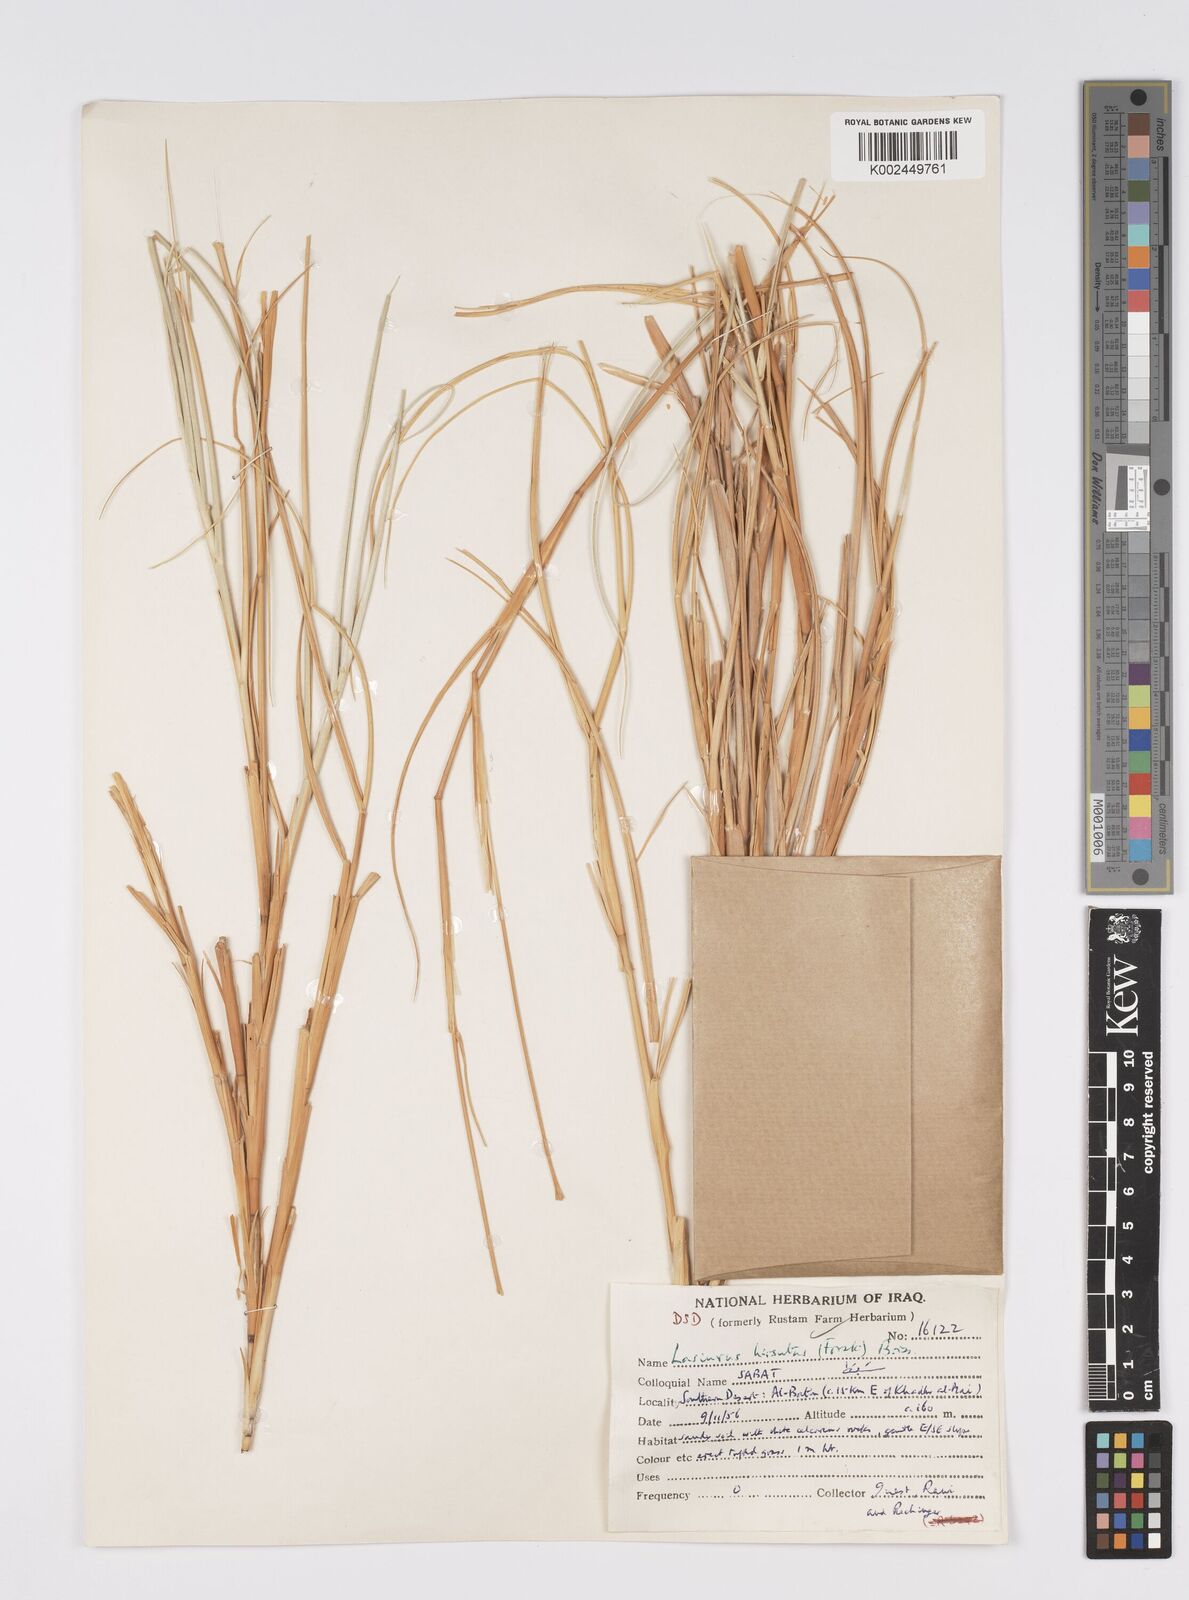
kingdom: Plantae
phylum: Tracheophyta
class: Liliopsida
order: Poales
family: Poaceae
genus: Lasiurus
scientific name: Lasiurus scindicus
